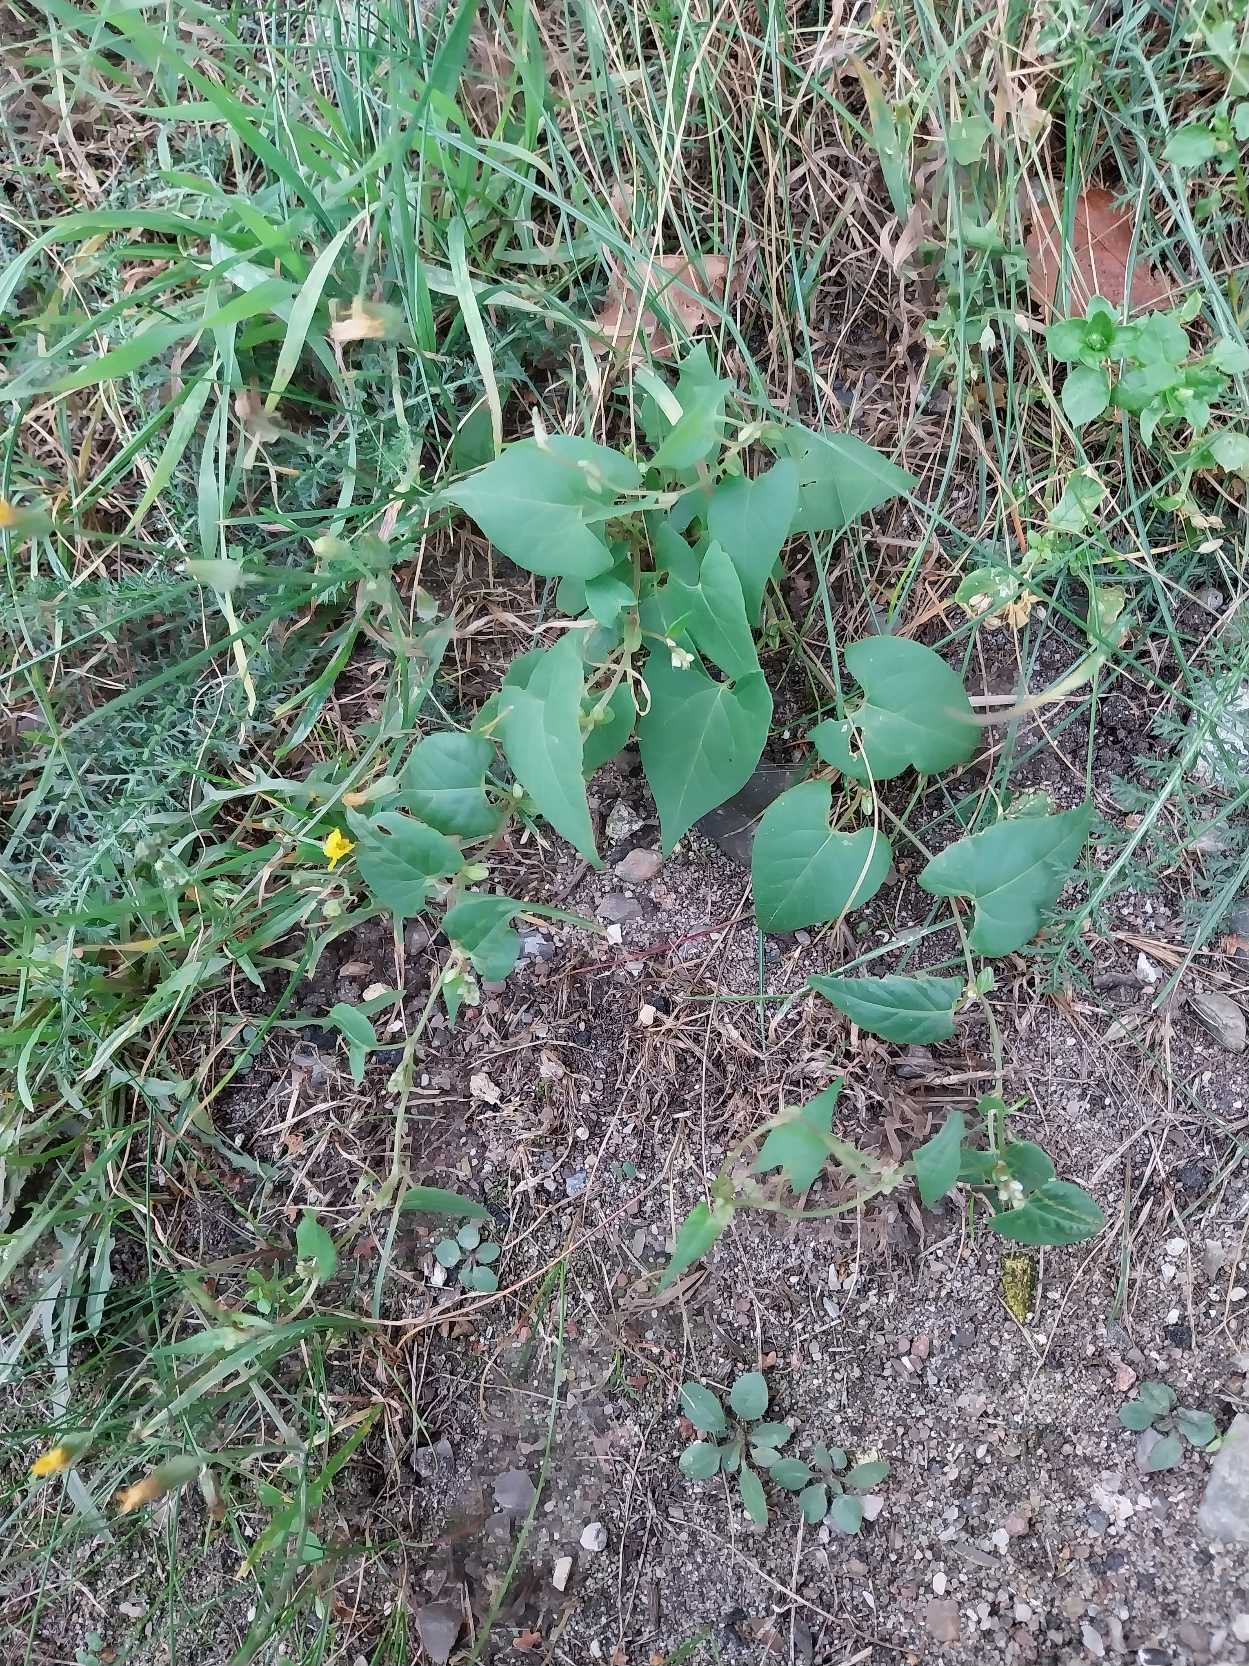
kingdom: Plantae
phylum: Tracheophyta
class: Magnoliopsida
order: Caryophyllales
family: Polygonaceae
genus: Fallopia
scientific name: Fallopia convolvulus
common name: Snerle-pileurt
